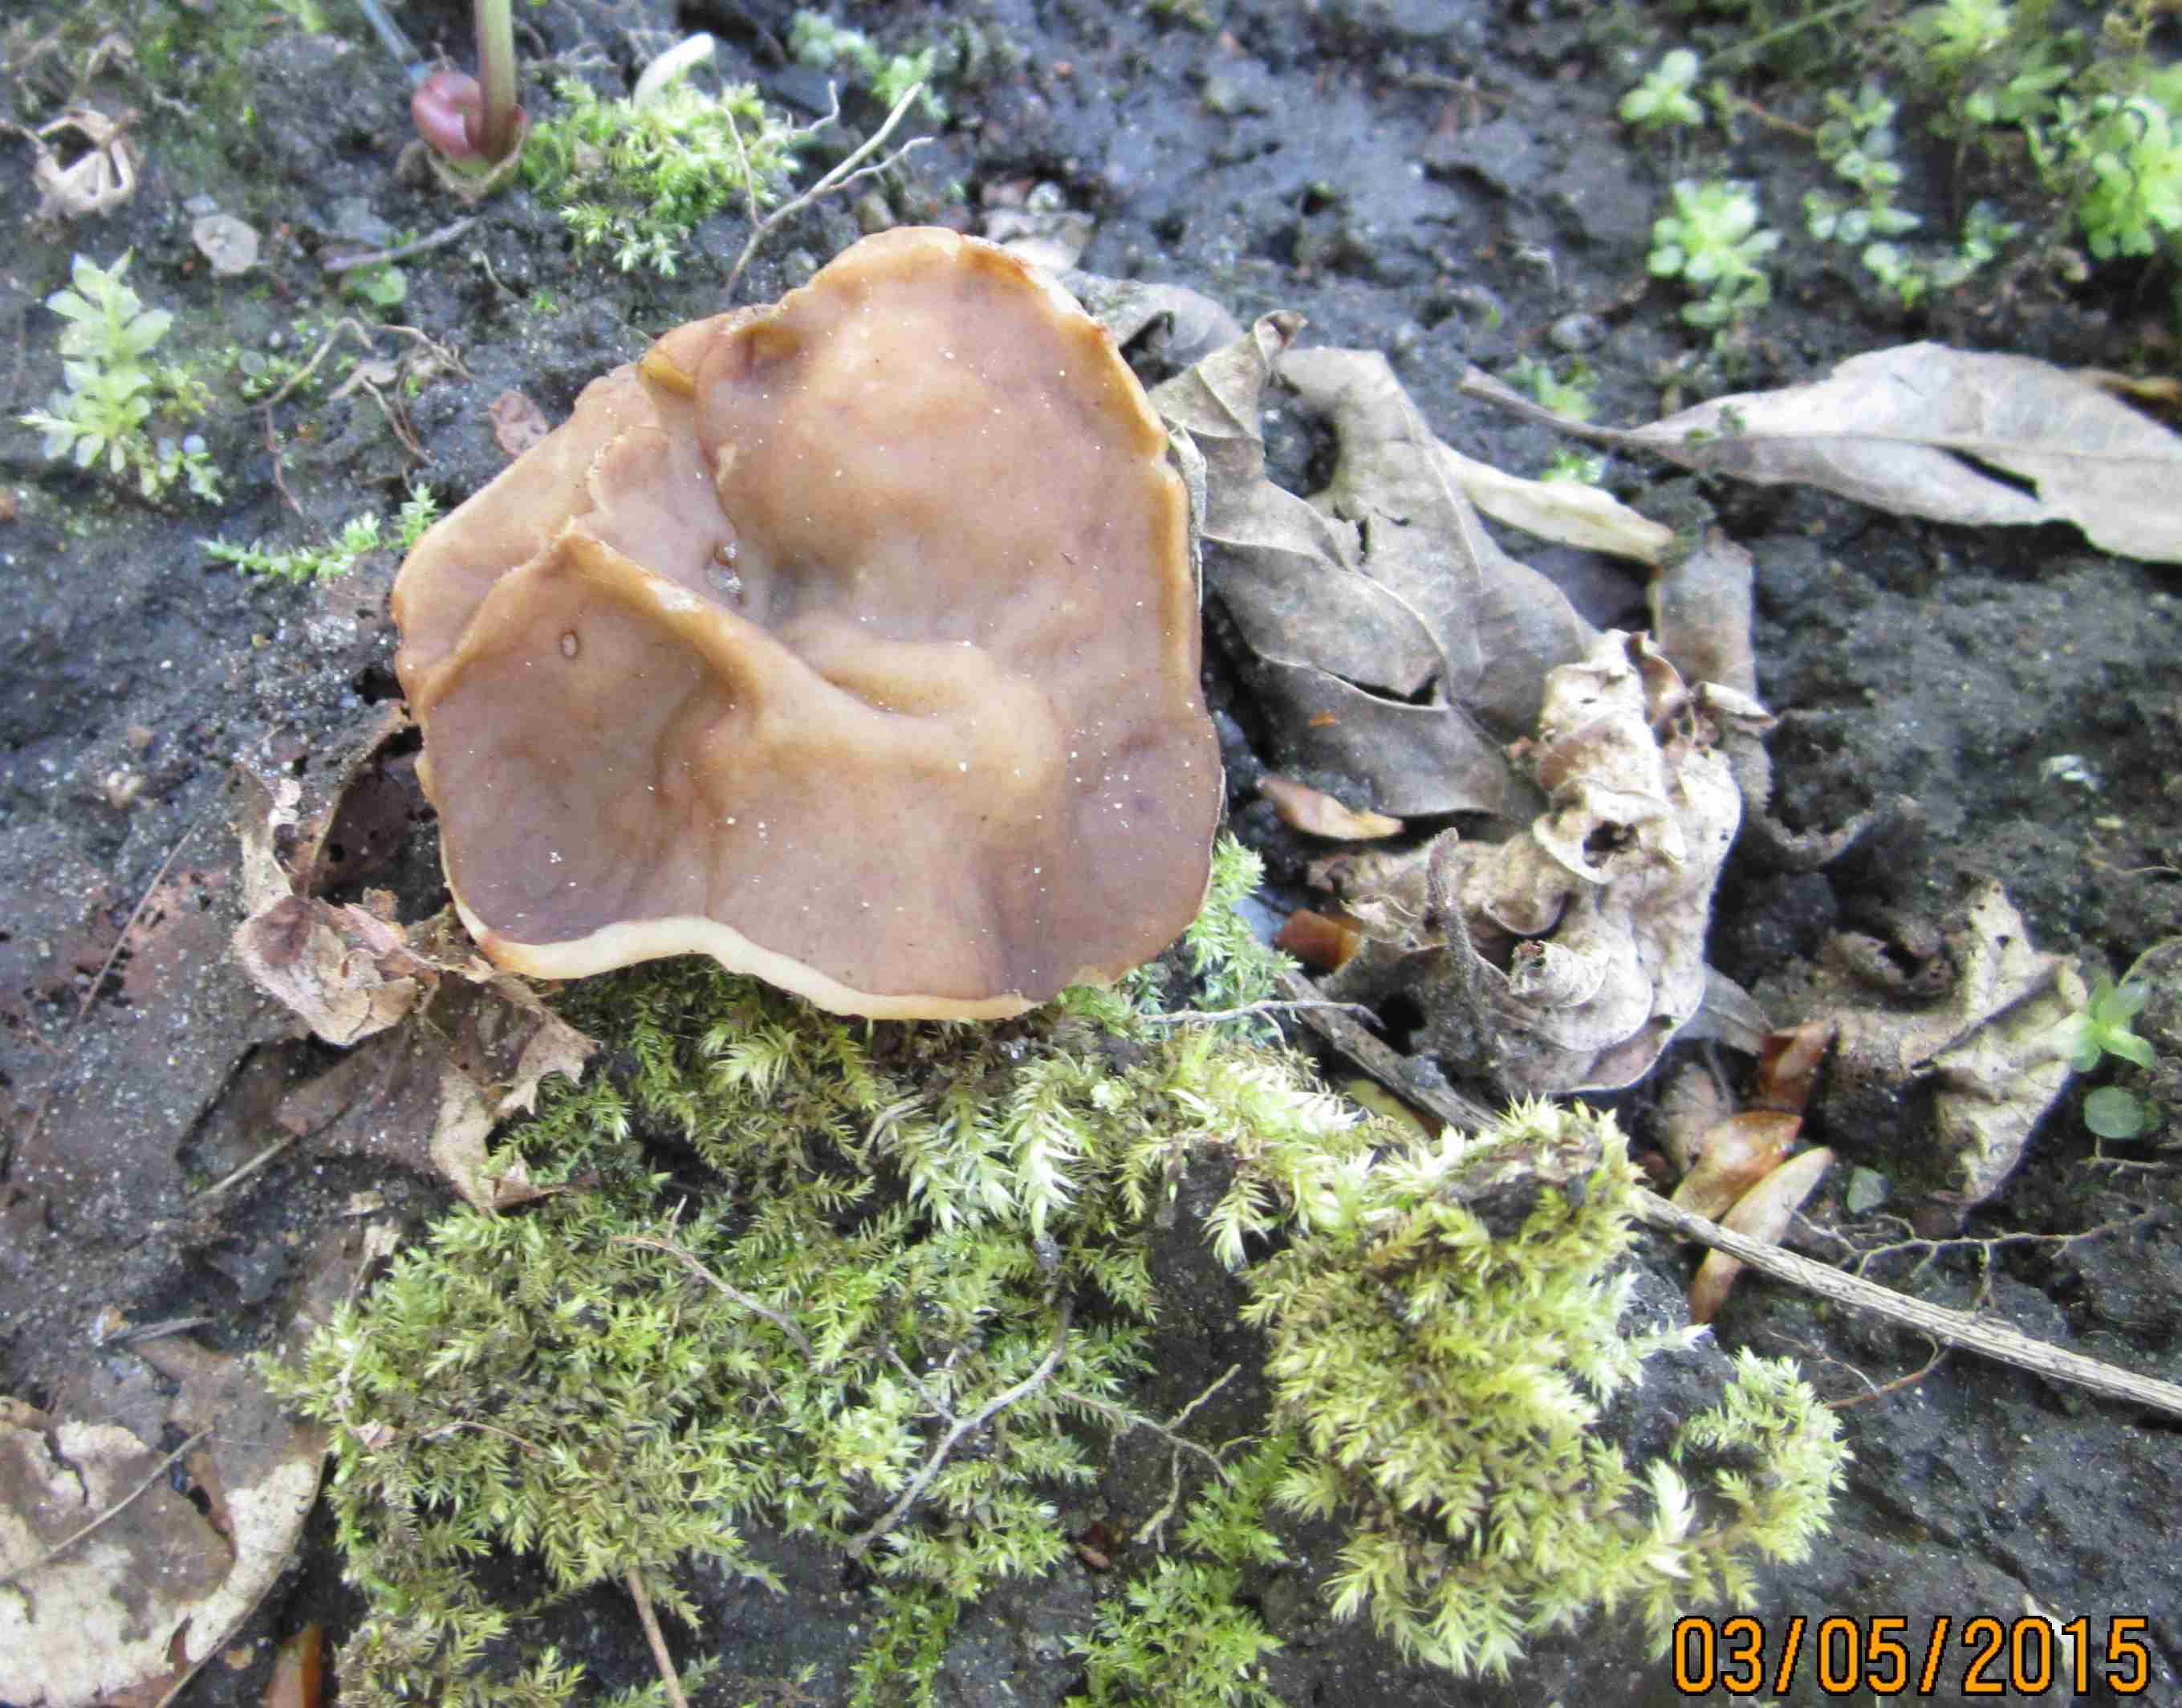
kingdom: Fungi
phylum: Ascomycota
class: Pezizomycetes
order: Pezizales
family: Morchellaceae
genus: Disciotis
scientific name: Disciotis venosa
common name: klor-bægermorkel
